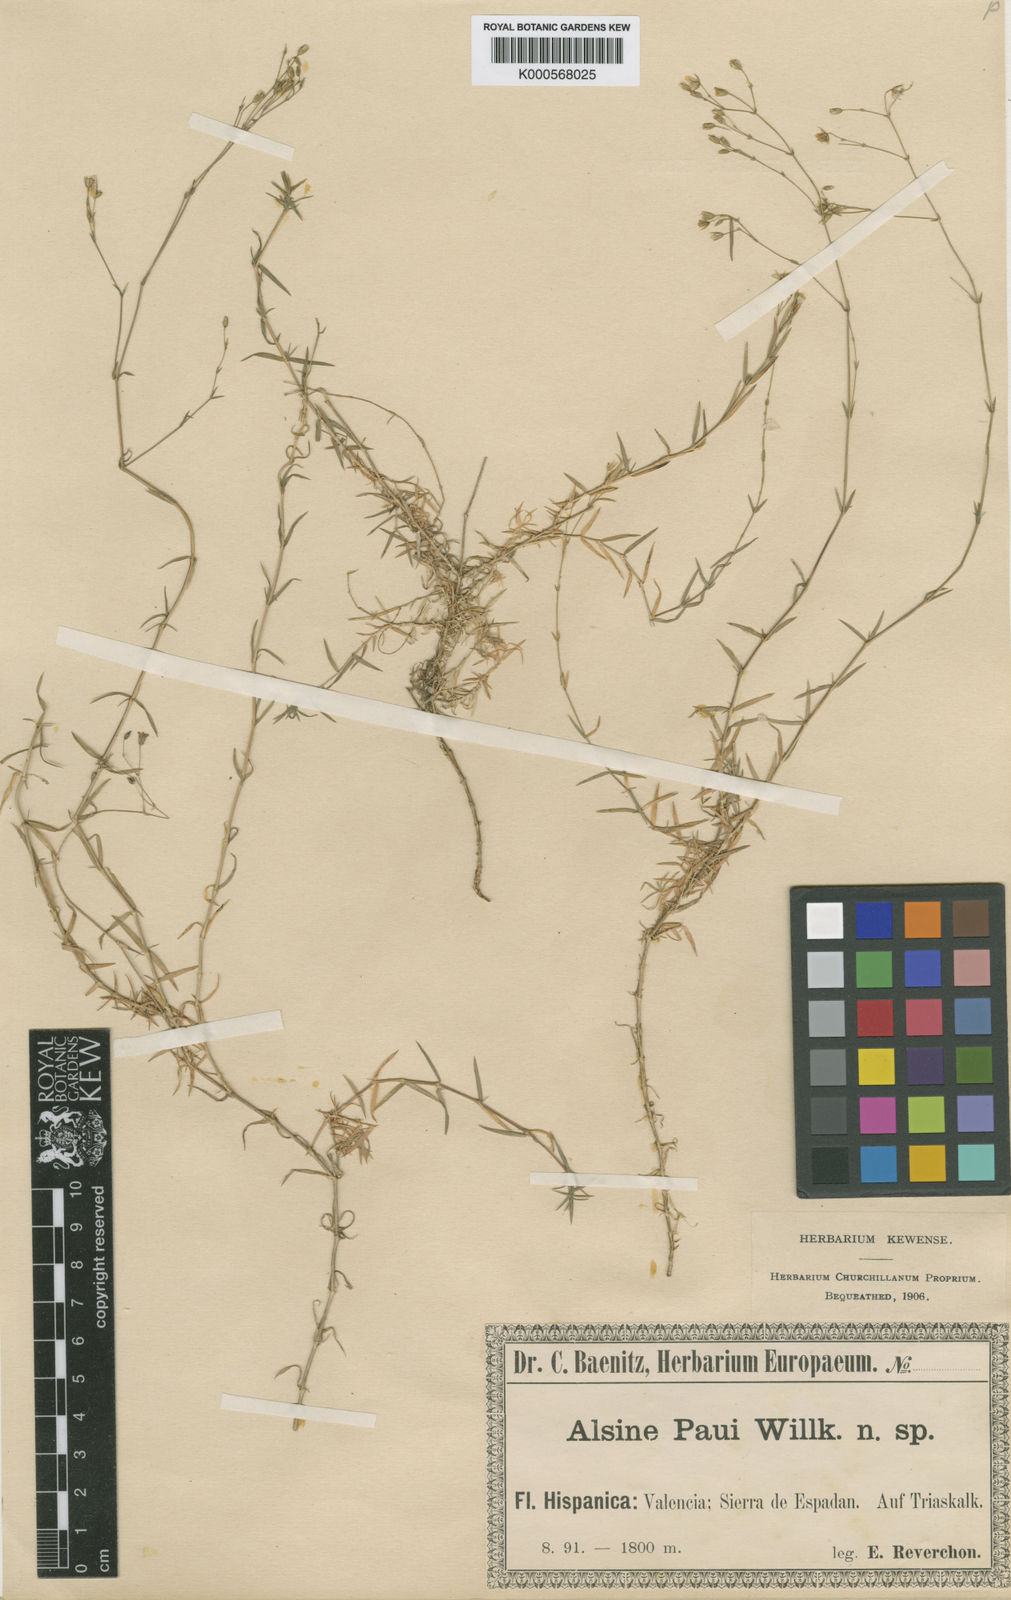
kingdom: Plantae
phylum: Tracheophyta
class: Magnoliopsida
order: Caryophyllales
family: Caryophyllaceae
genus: Facchinia
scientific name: Facchinia valentina
